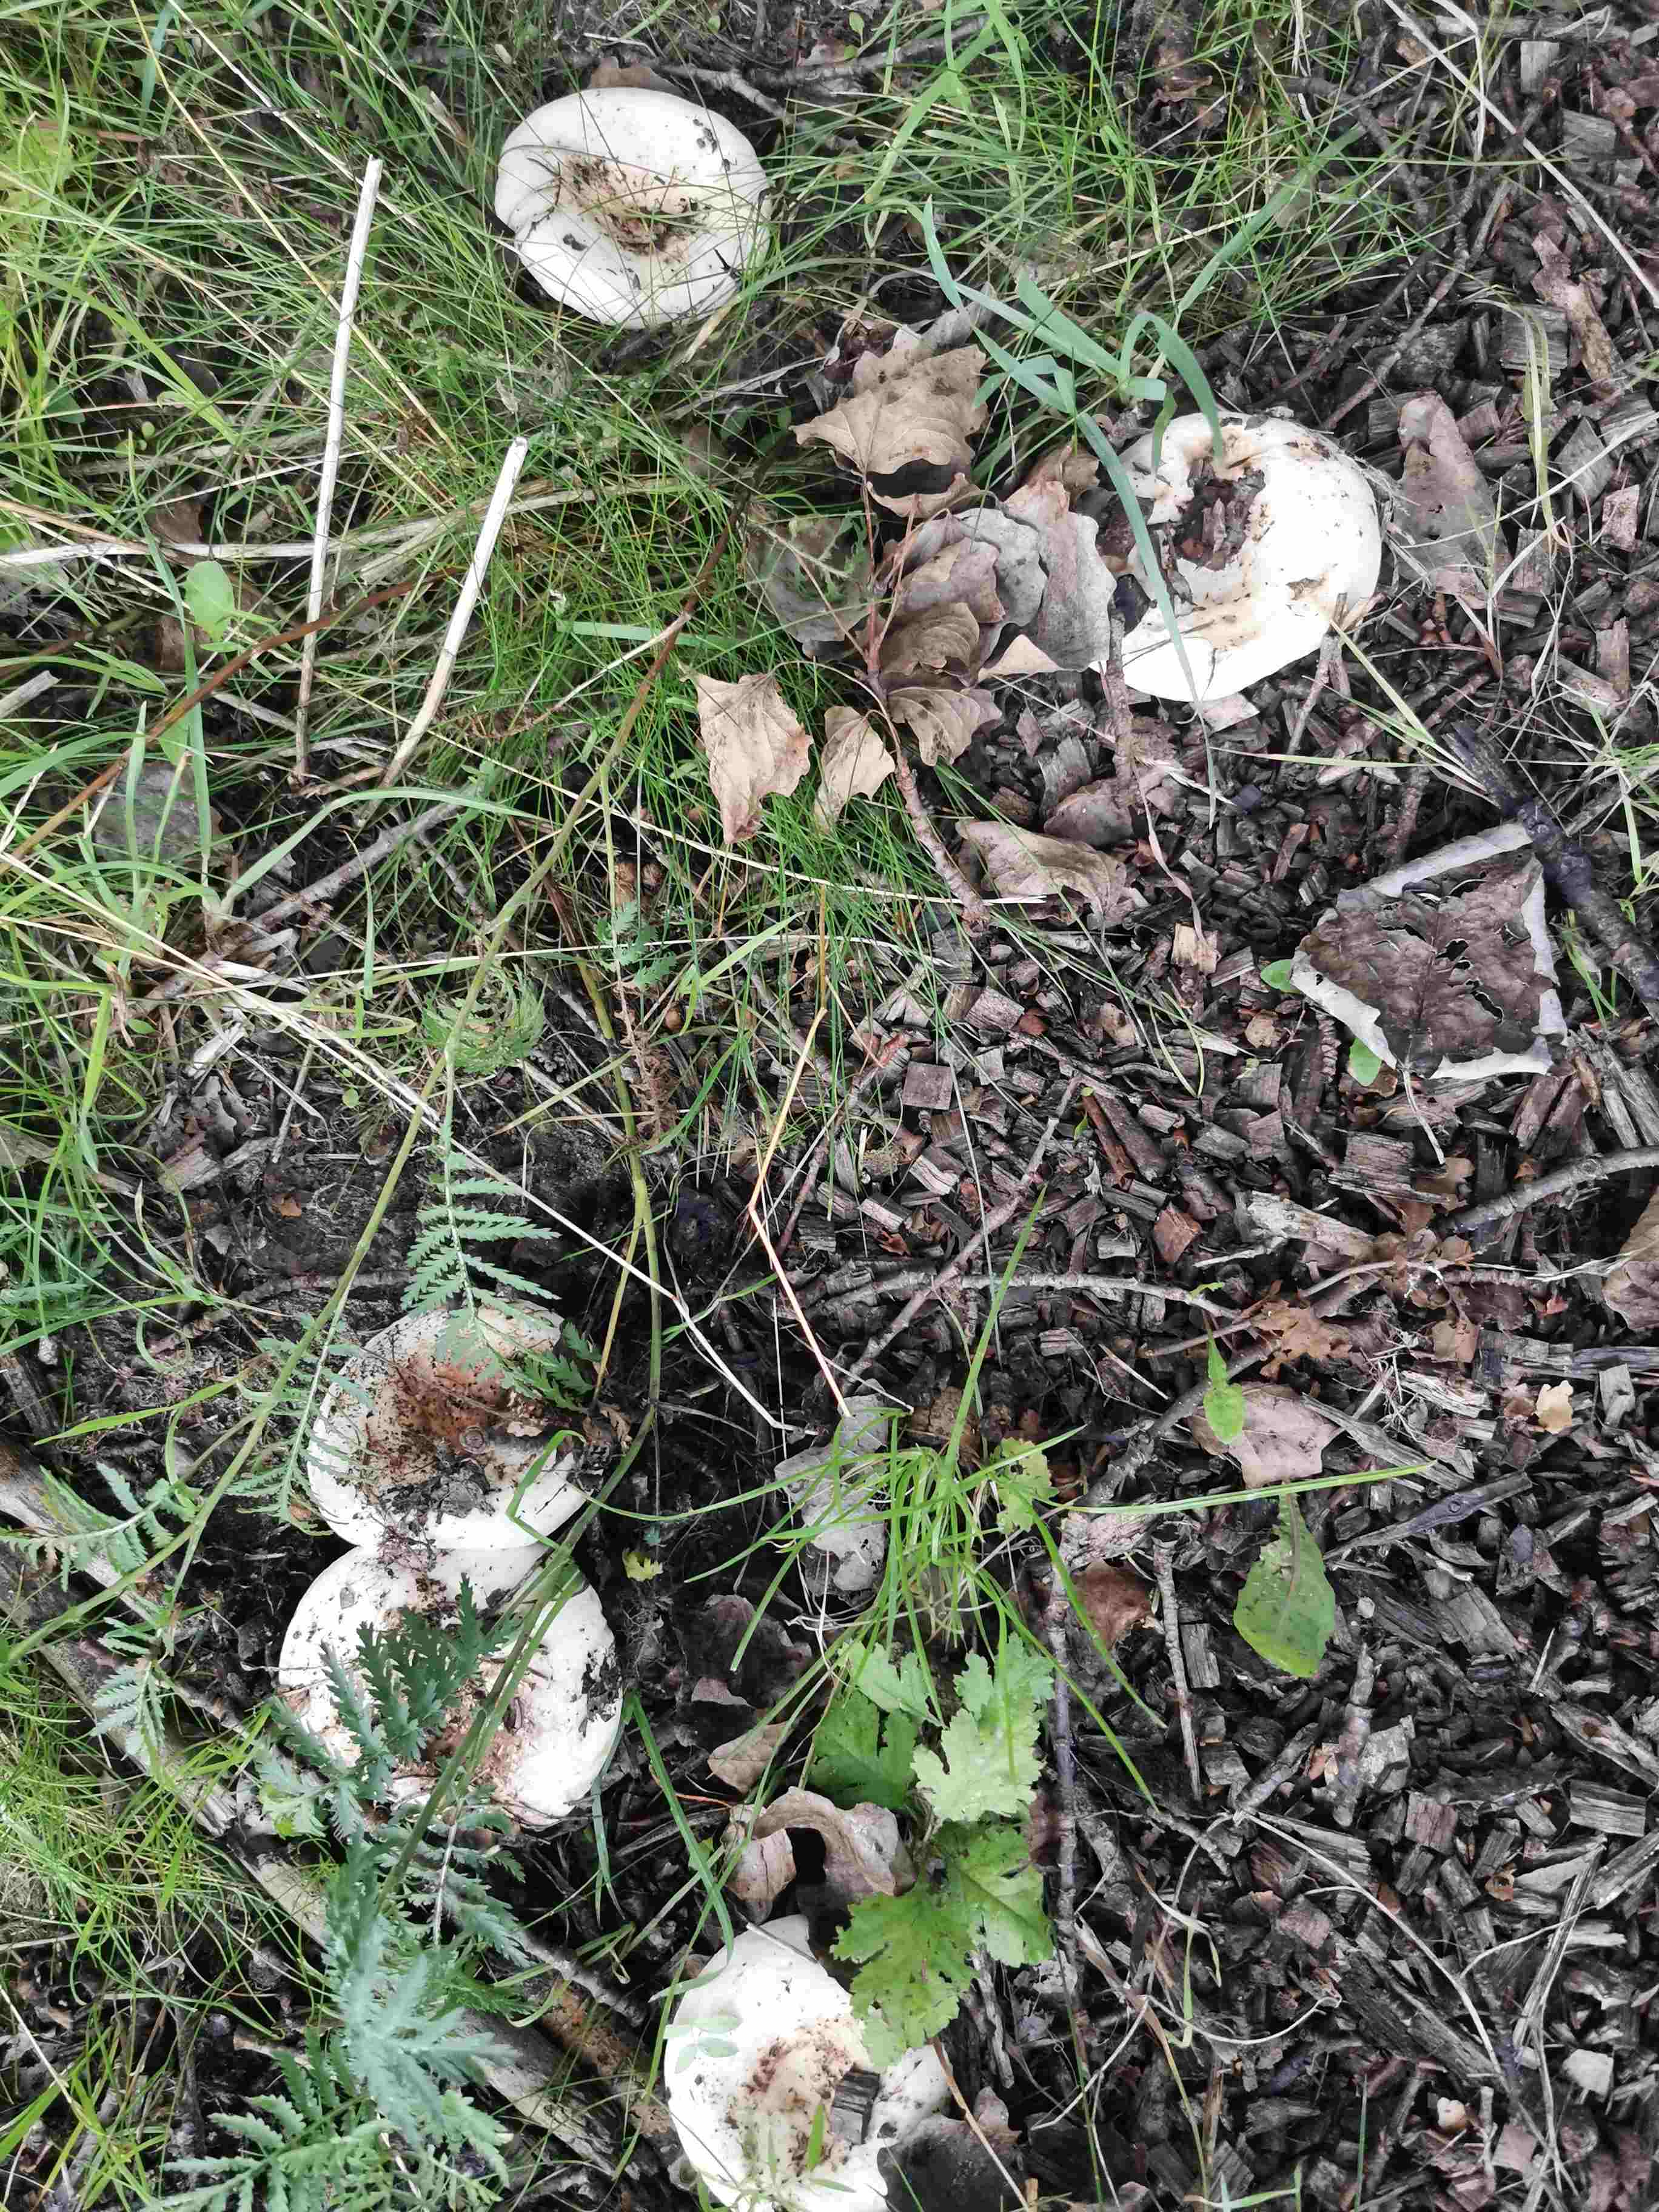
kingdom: Fungi
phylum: Basidiomycota
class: Agaricomycetes
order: Russulales
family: Russulaceae
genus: Lactarius
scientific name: Lactarius controversus
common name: rosabladet mælkehat
